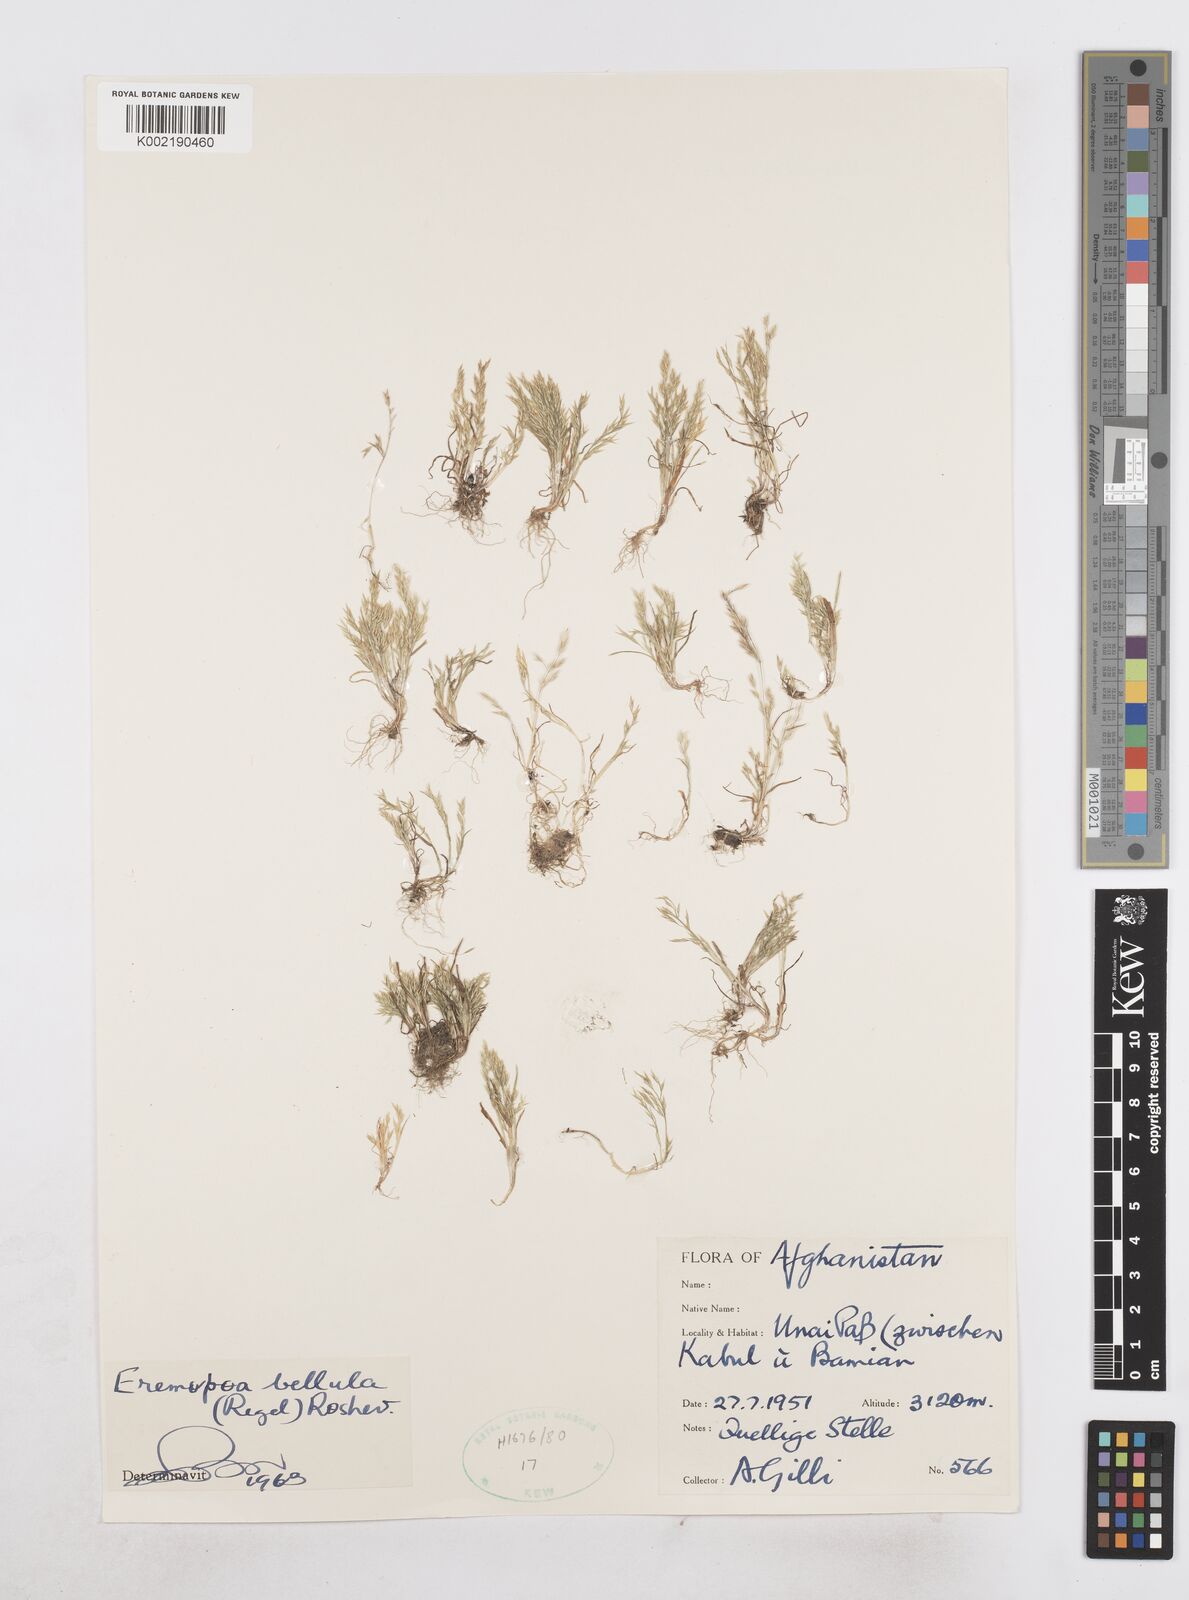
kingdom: Plantae
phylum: Tracheophyta
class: Liliopsida
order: Poales
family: Poaceae
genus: Poa
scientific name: Poa diaphora
